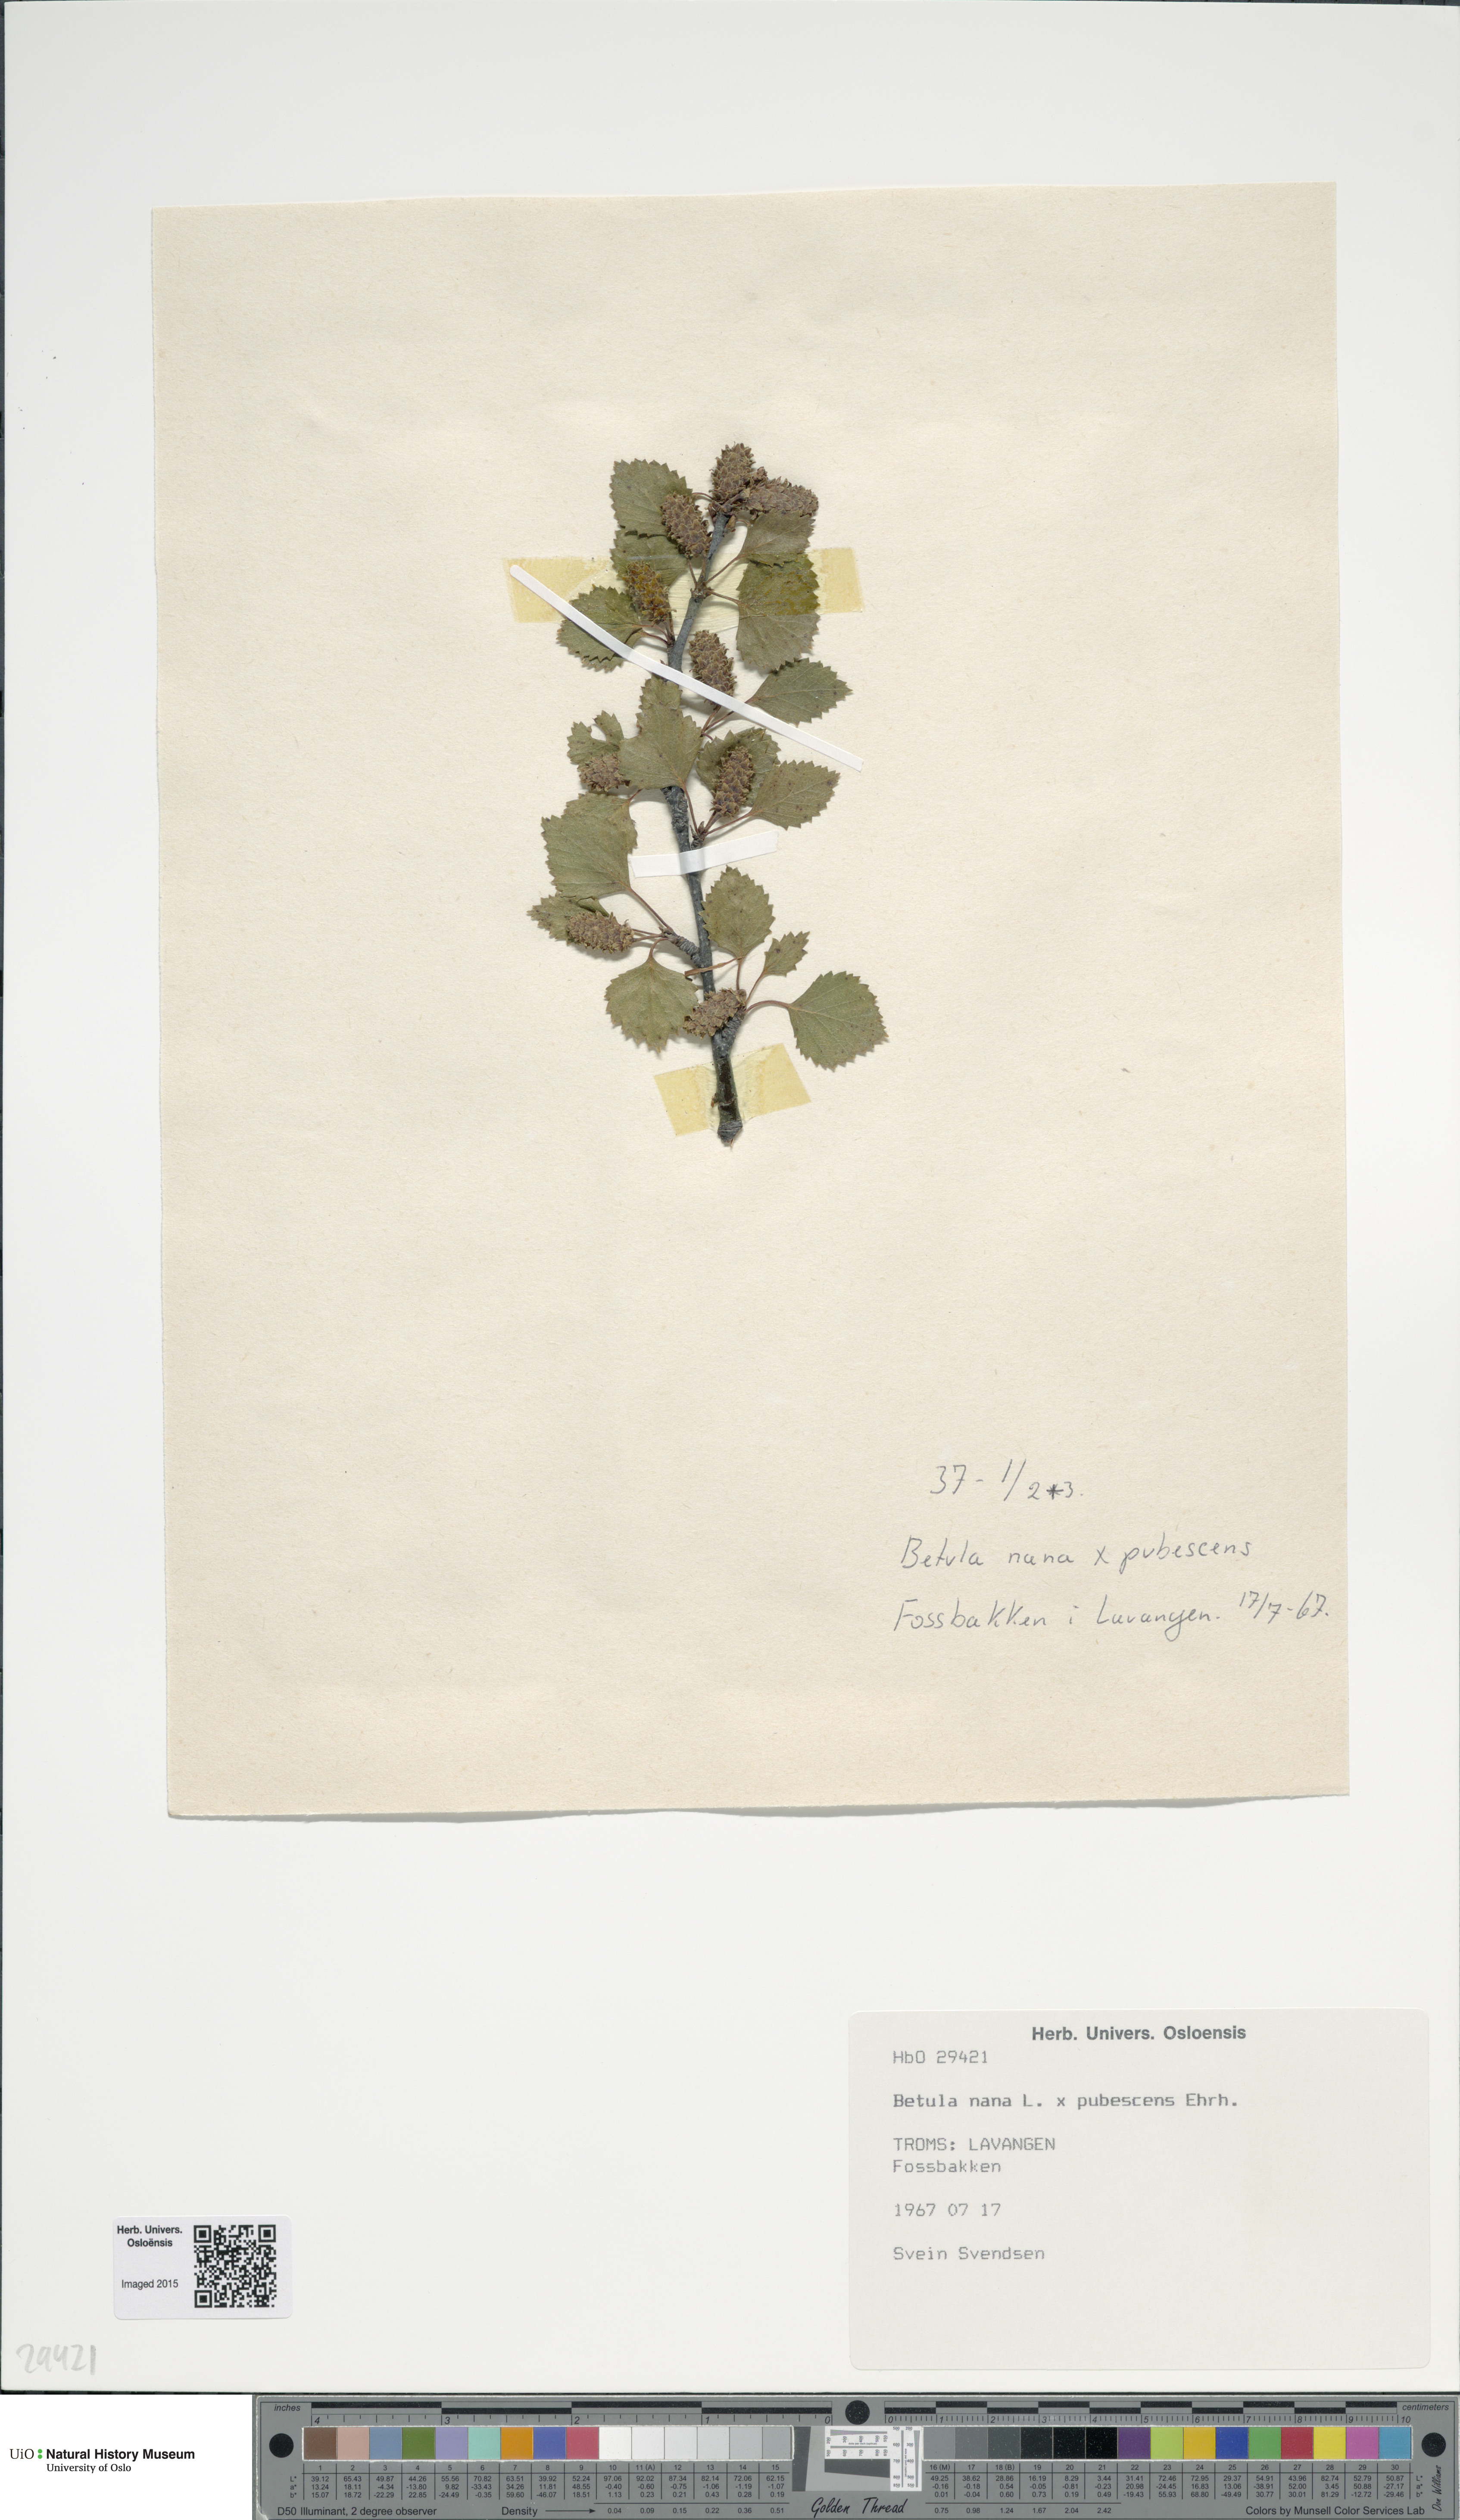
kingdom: Plantae
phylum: Tracheophyta
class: Magnoliopsida
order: Fagales
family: Betulaceae
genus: Betula
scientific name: Betula
